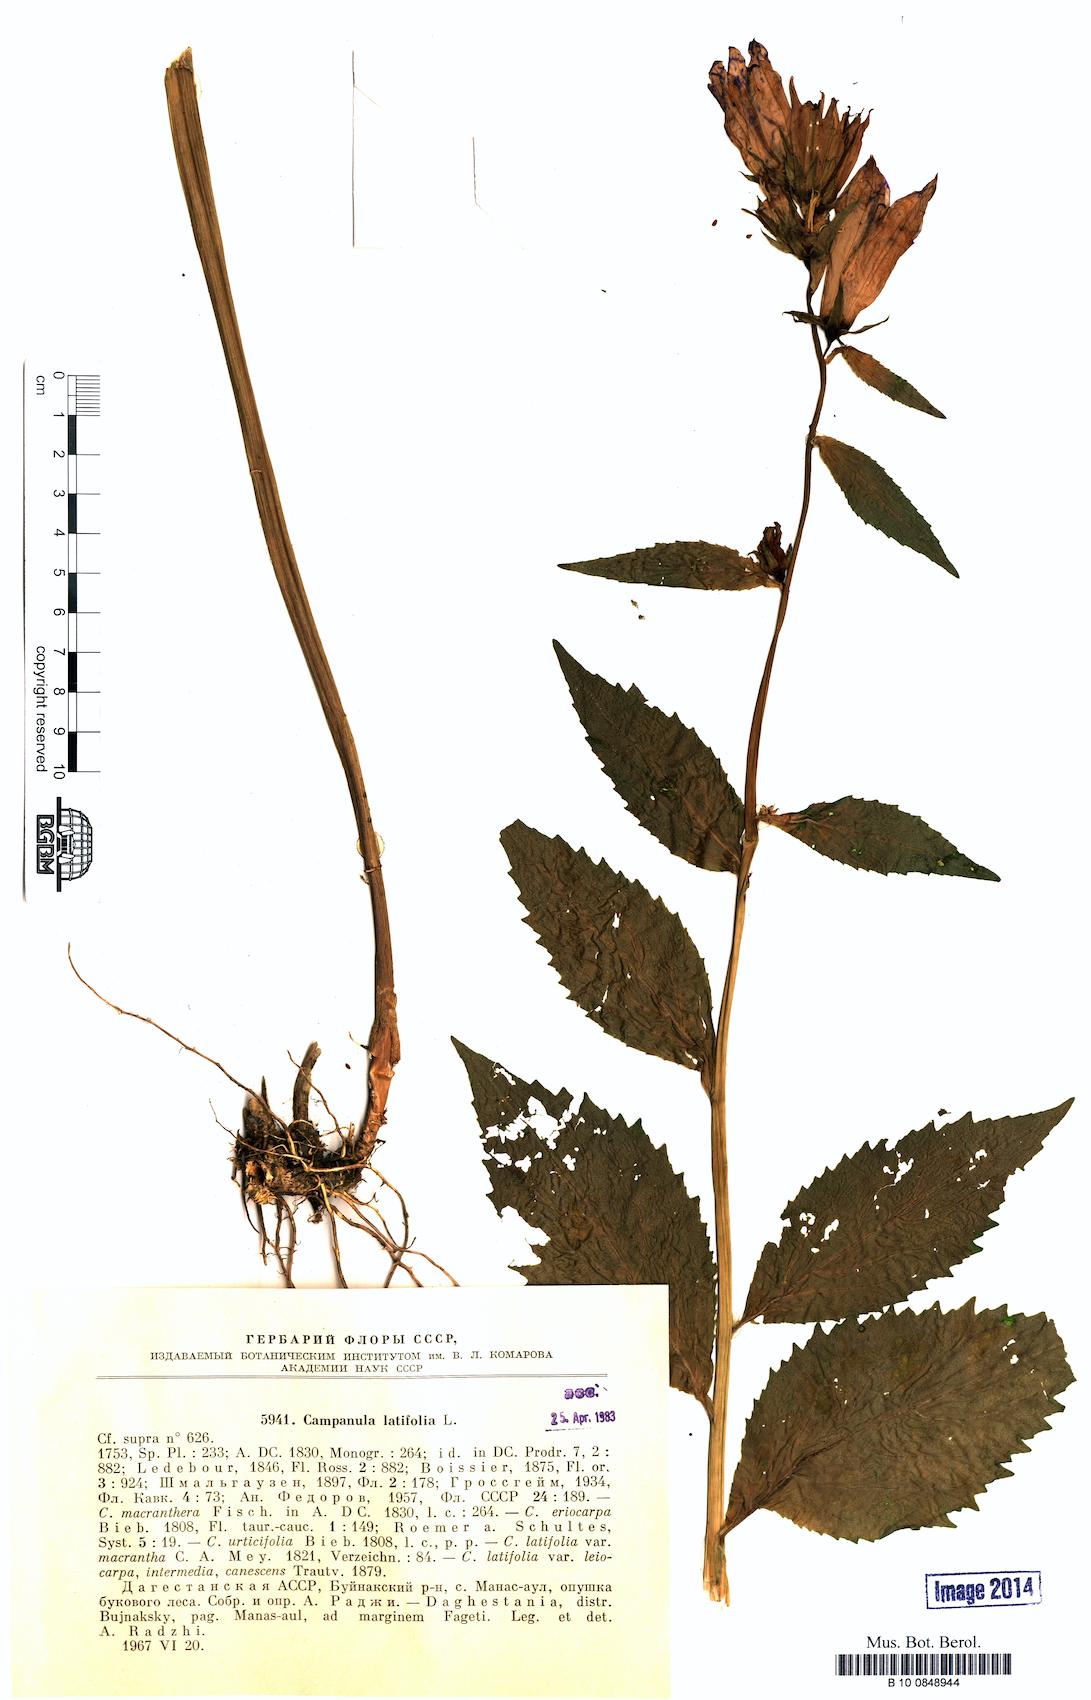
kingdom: Plantae
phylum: Tracheophyta
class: Magnoliopsida
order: Asterales
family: Campanulaceae
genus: Campanula
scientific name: Campanula latifolia
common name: Giant bellflower
